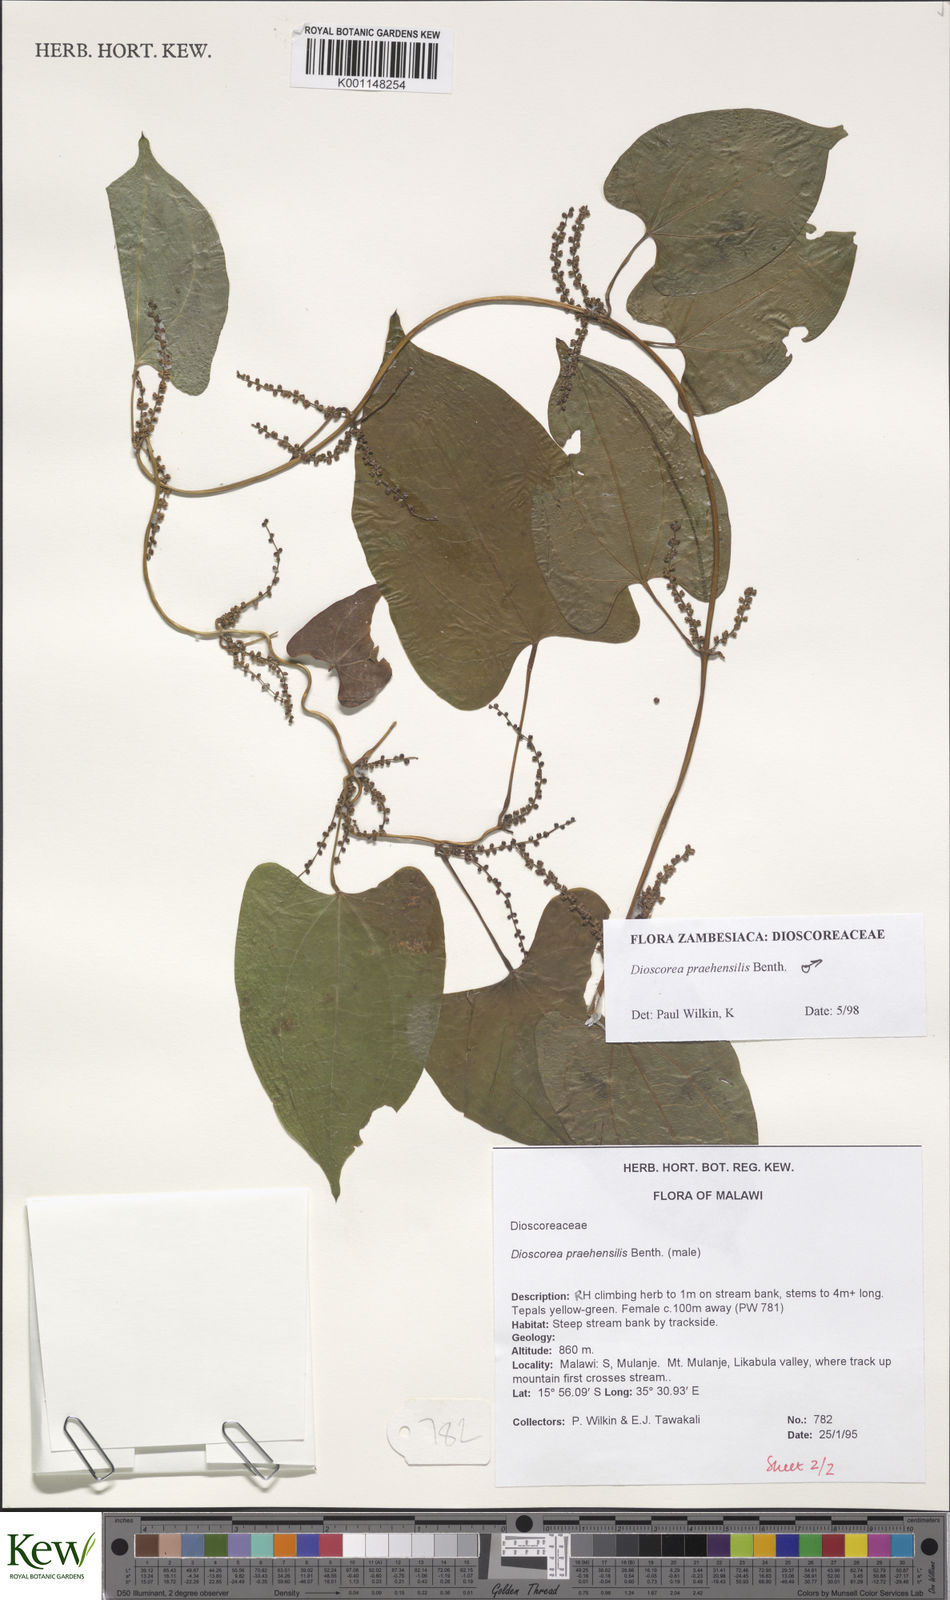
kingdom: Plantae
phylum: Tracheophyta
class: Liliopsida
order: Dioscoreales
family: Dioscoreaceae
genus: Dioscorea
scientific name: Dioscorea praehensilis
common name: Bush yam
